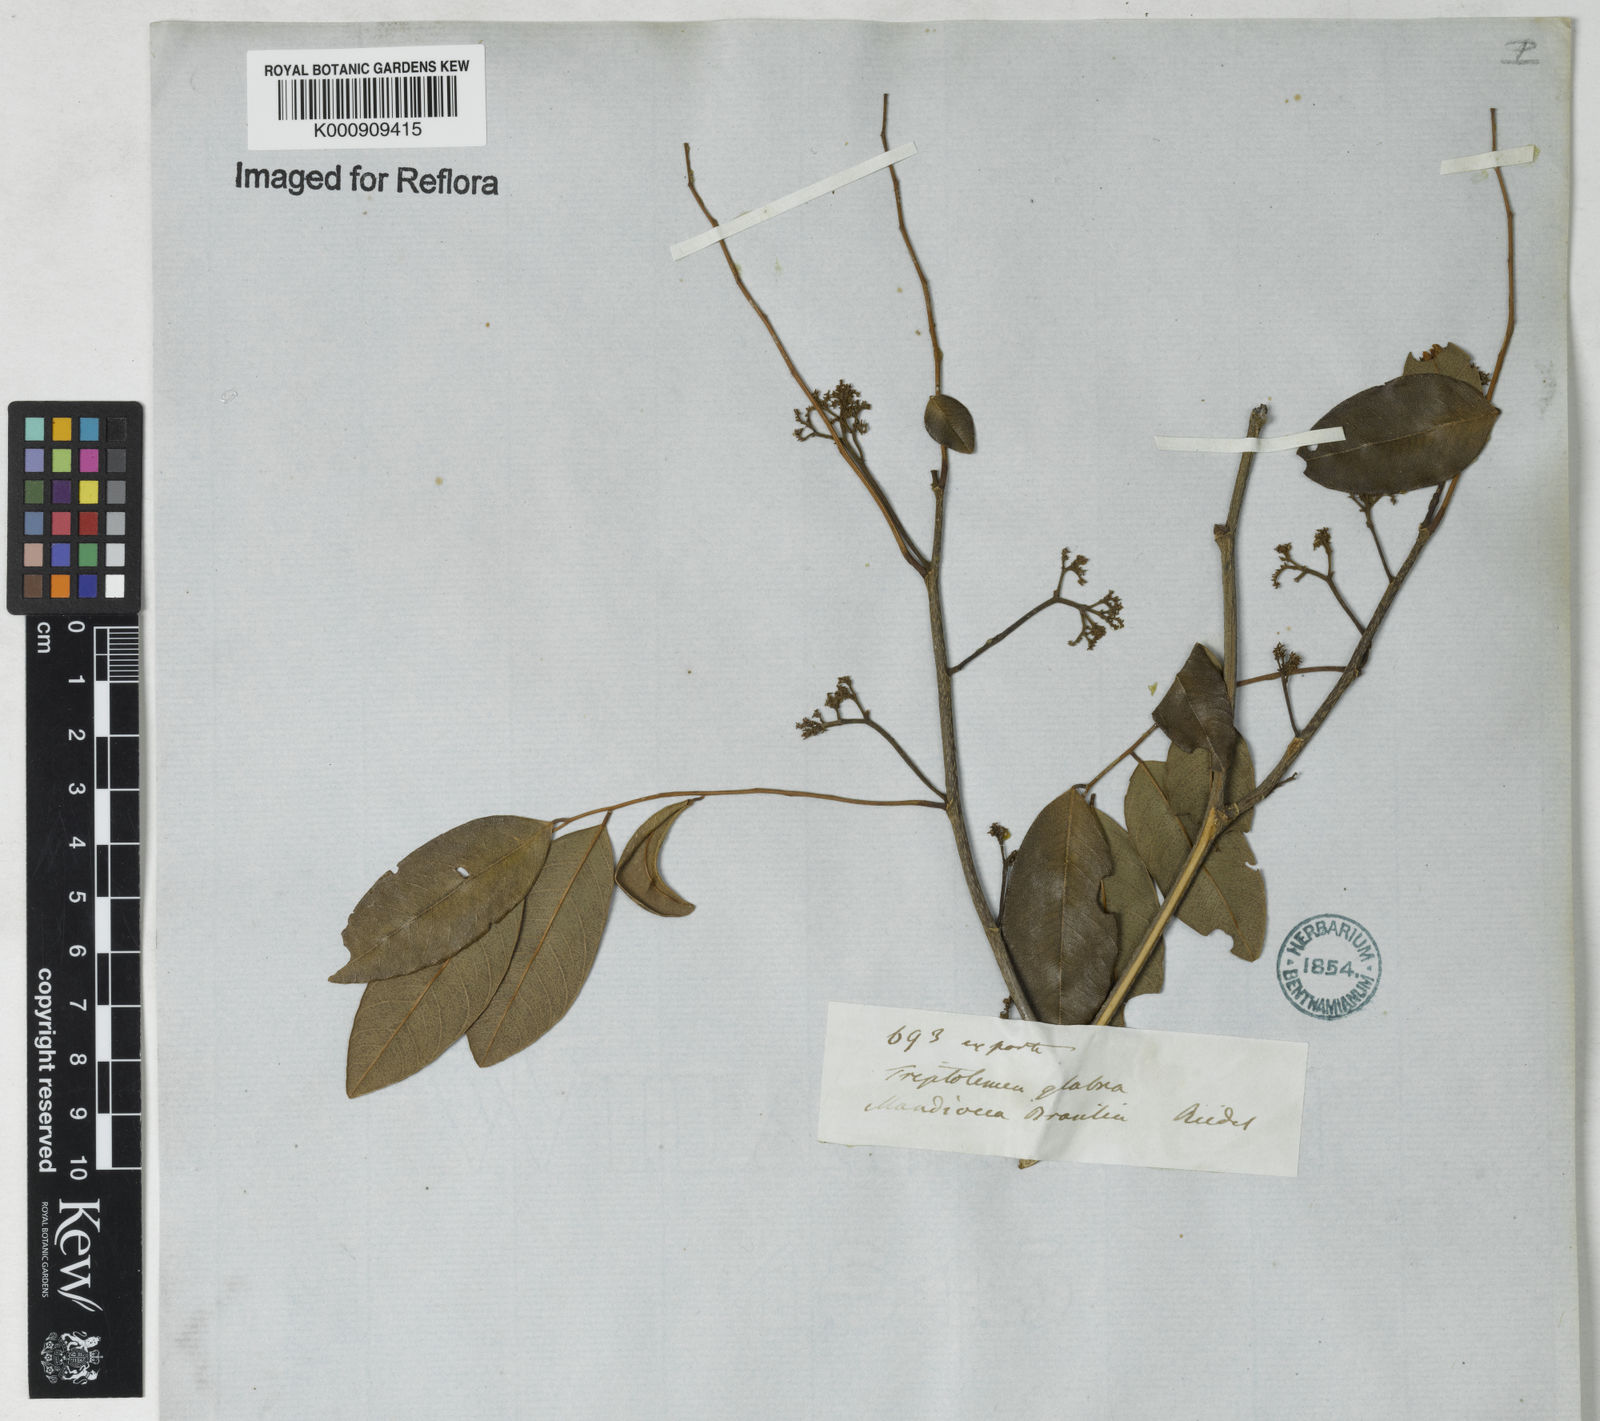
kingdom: Plantae
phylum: Tracheophyta
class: Magnoliopsida
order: Fabales
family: Fabaceae
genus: Dalbergia
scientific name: Dalbergia
